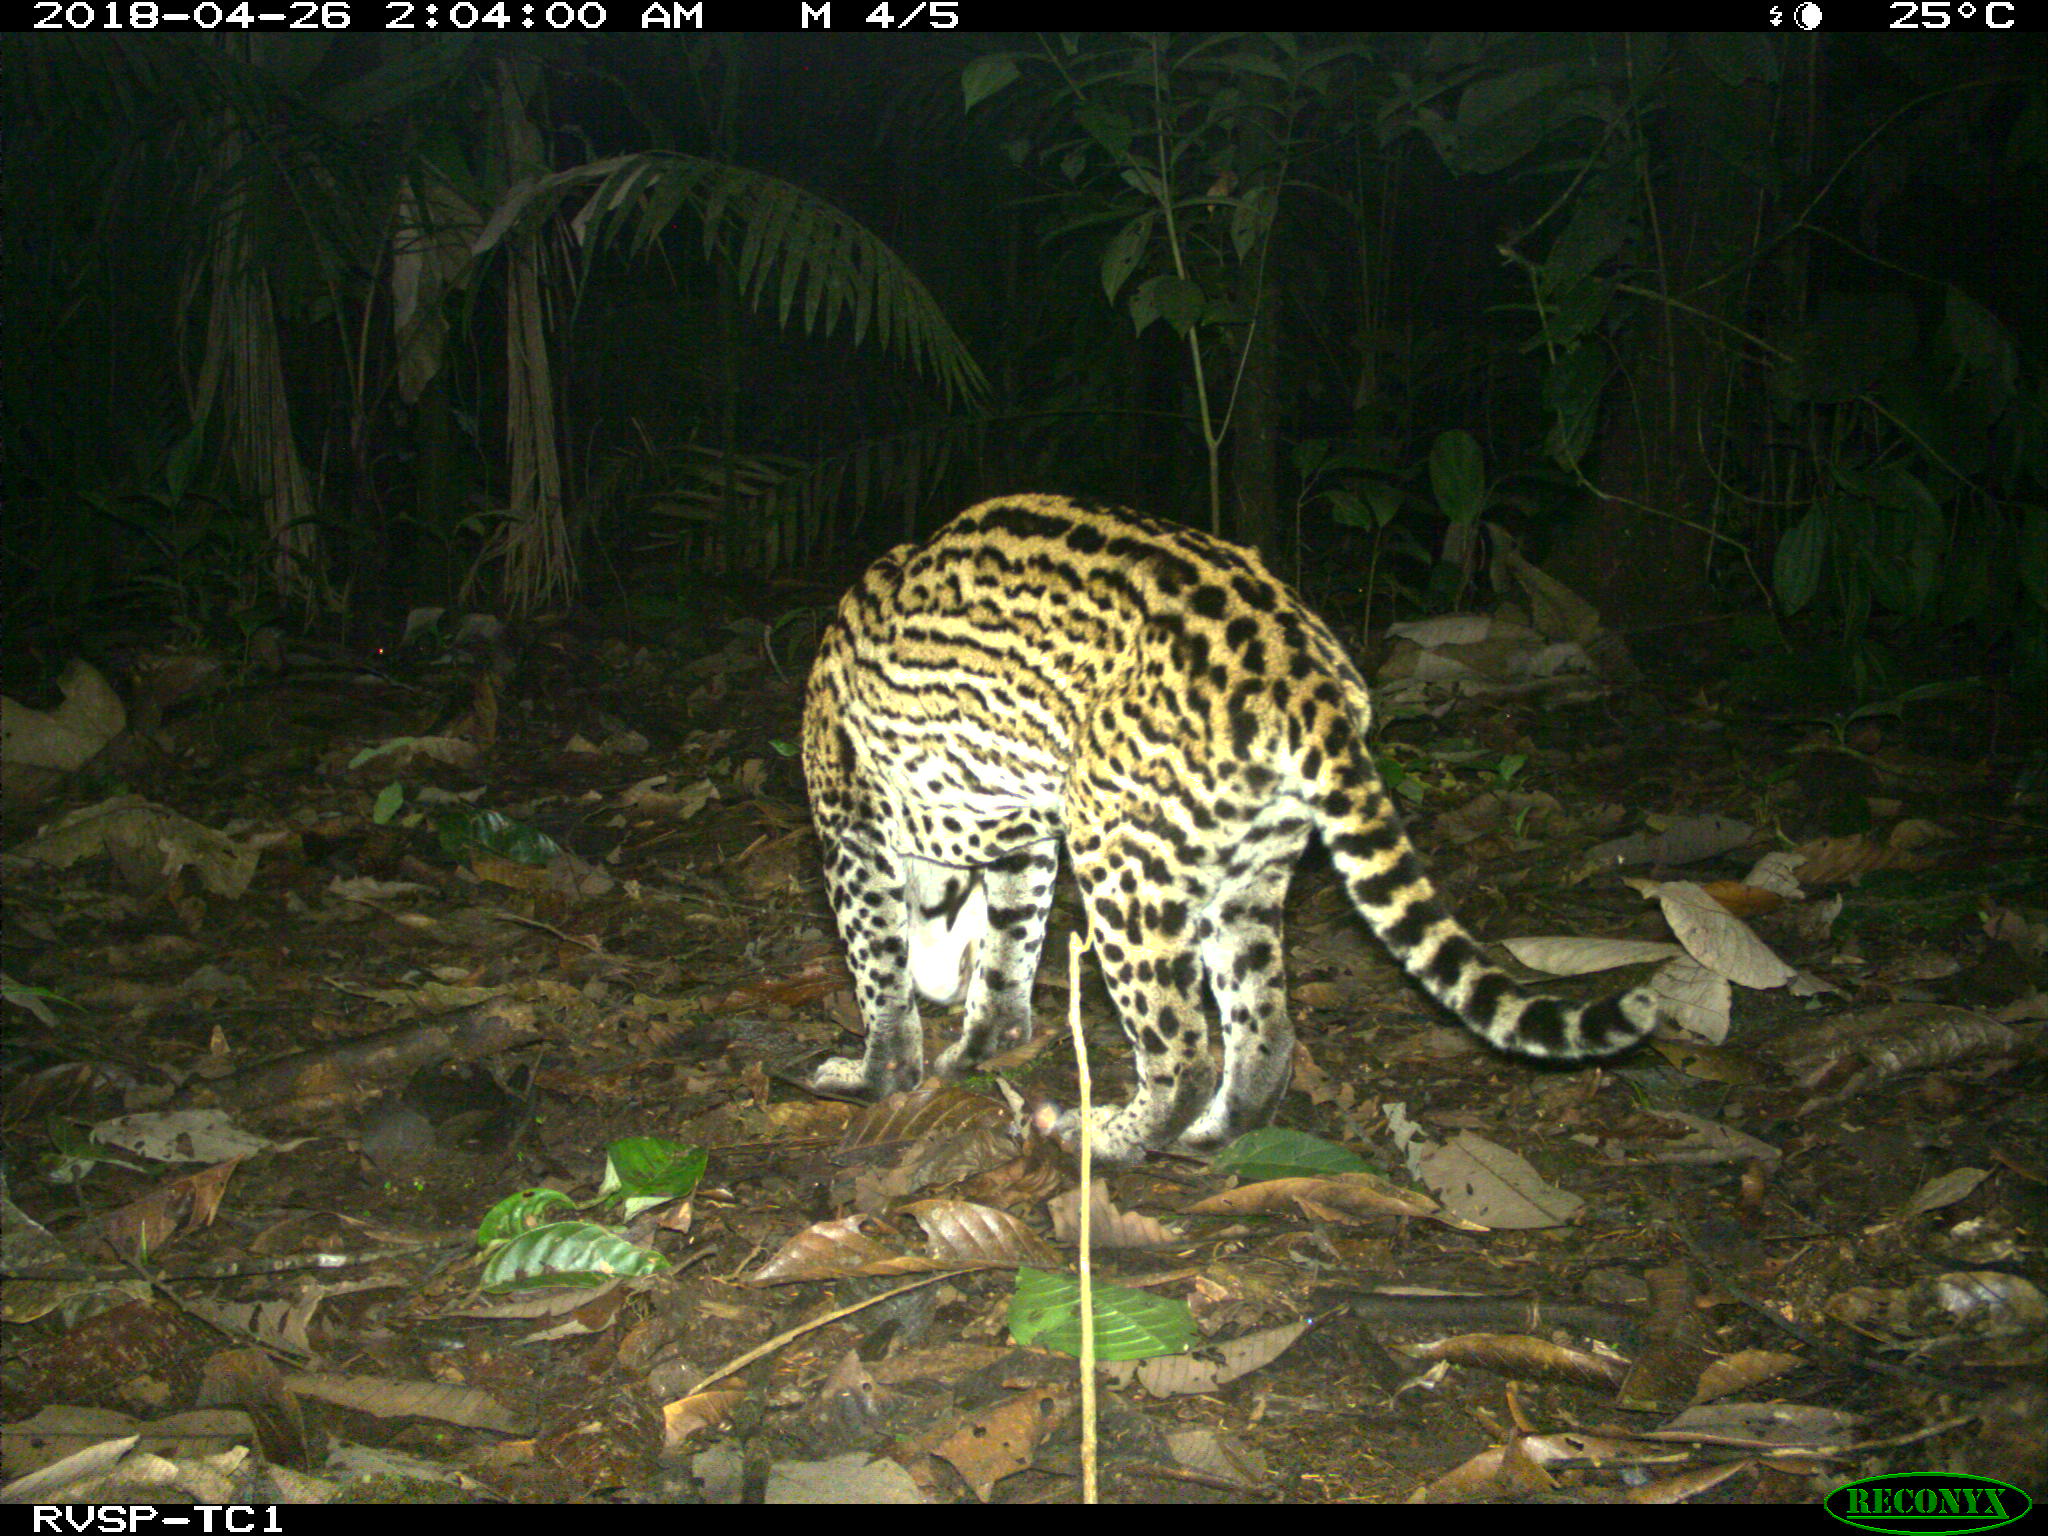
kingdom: Animalia
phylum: Chordata
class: Mammalia
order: Carnivora
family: Felidae
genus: Leopardus
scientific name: Leopardus pardalis
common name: Ocelot
